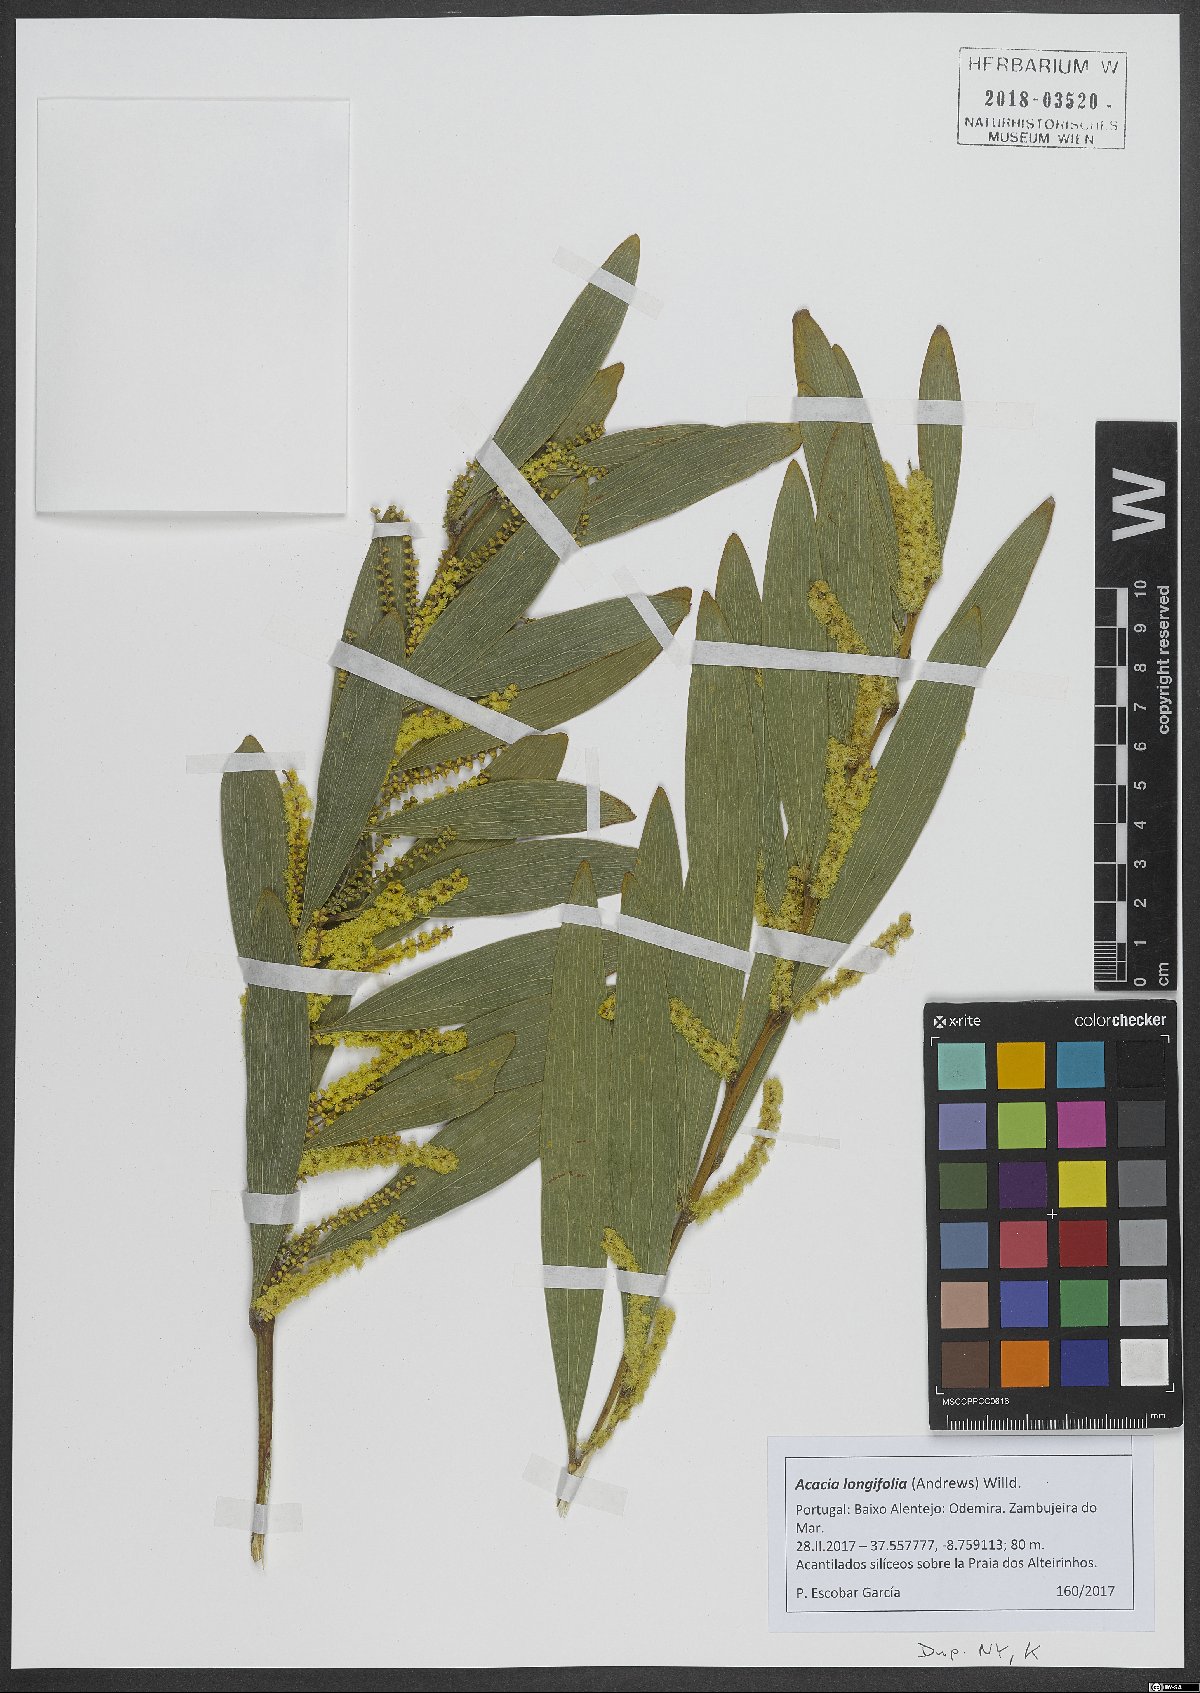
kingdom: Plantae
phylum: Tracheophyta
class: Magnoliopsida
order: Fabales
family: Fabaceae
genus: Acacia
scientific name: Acacia longifolia
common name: Sydney golden wattle
